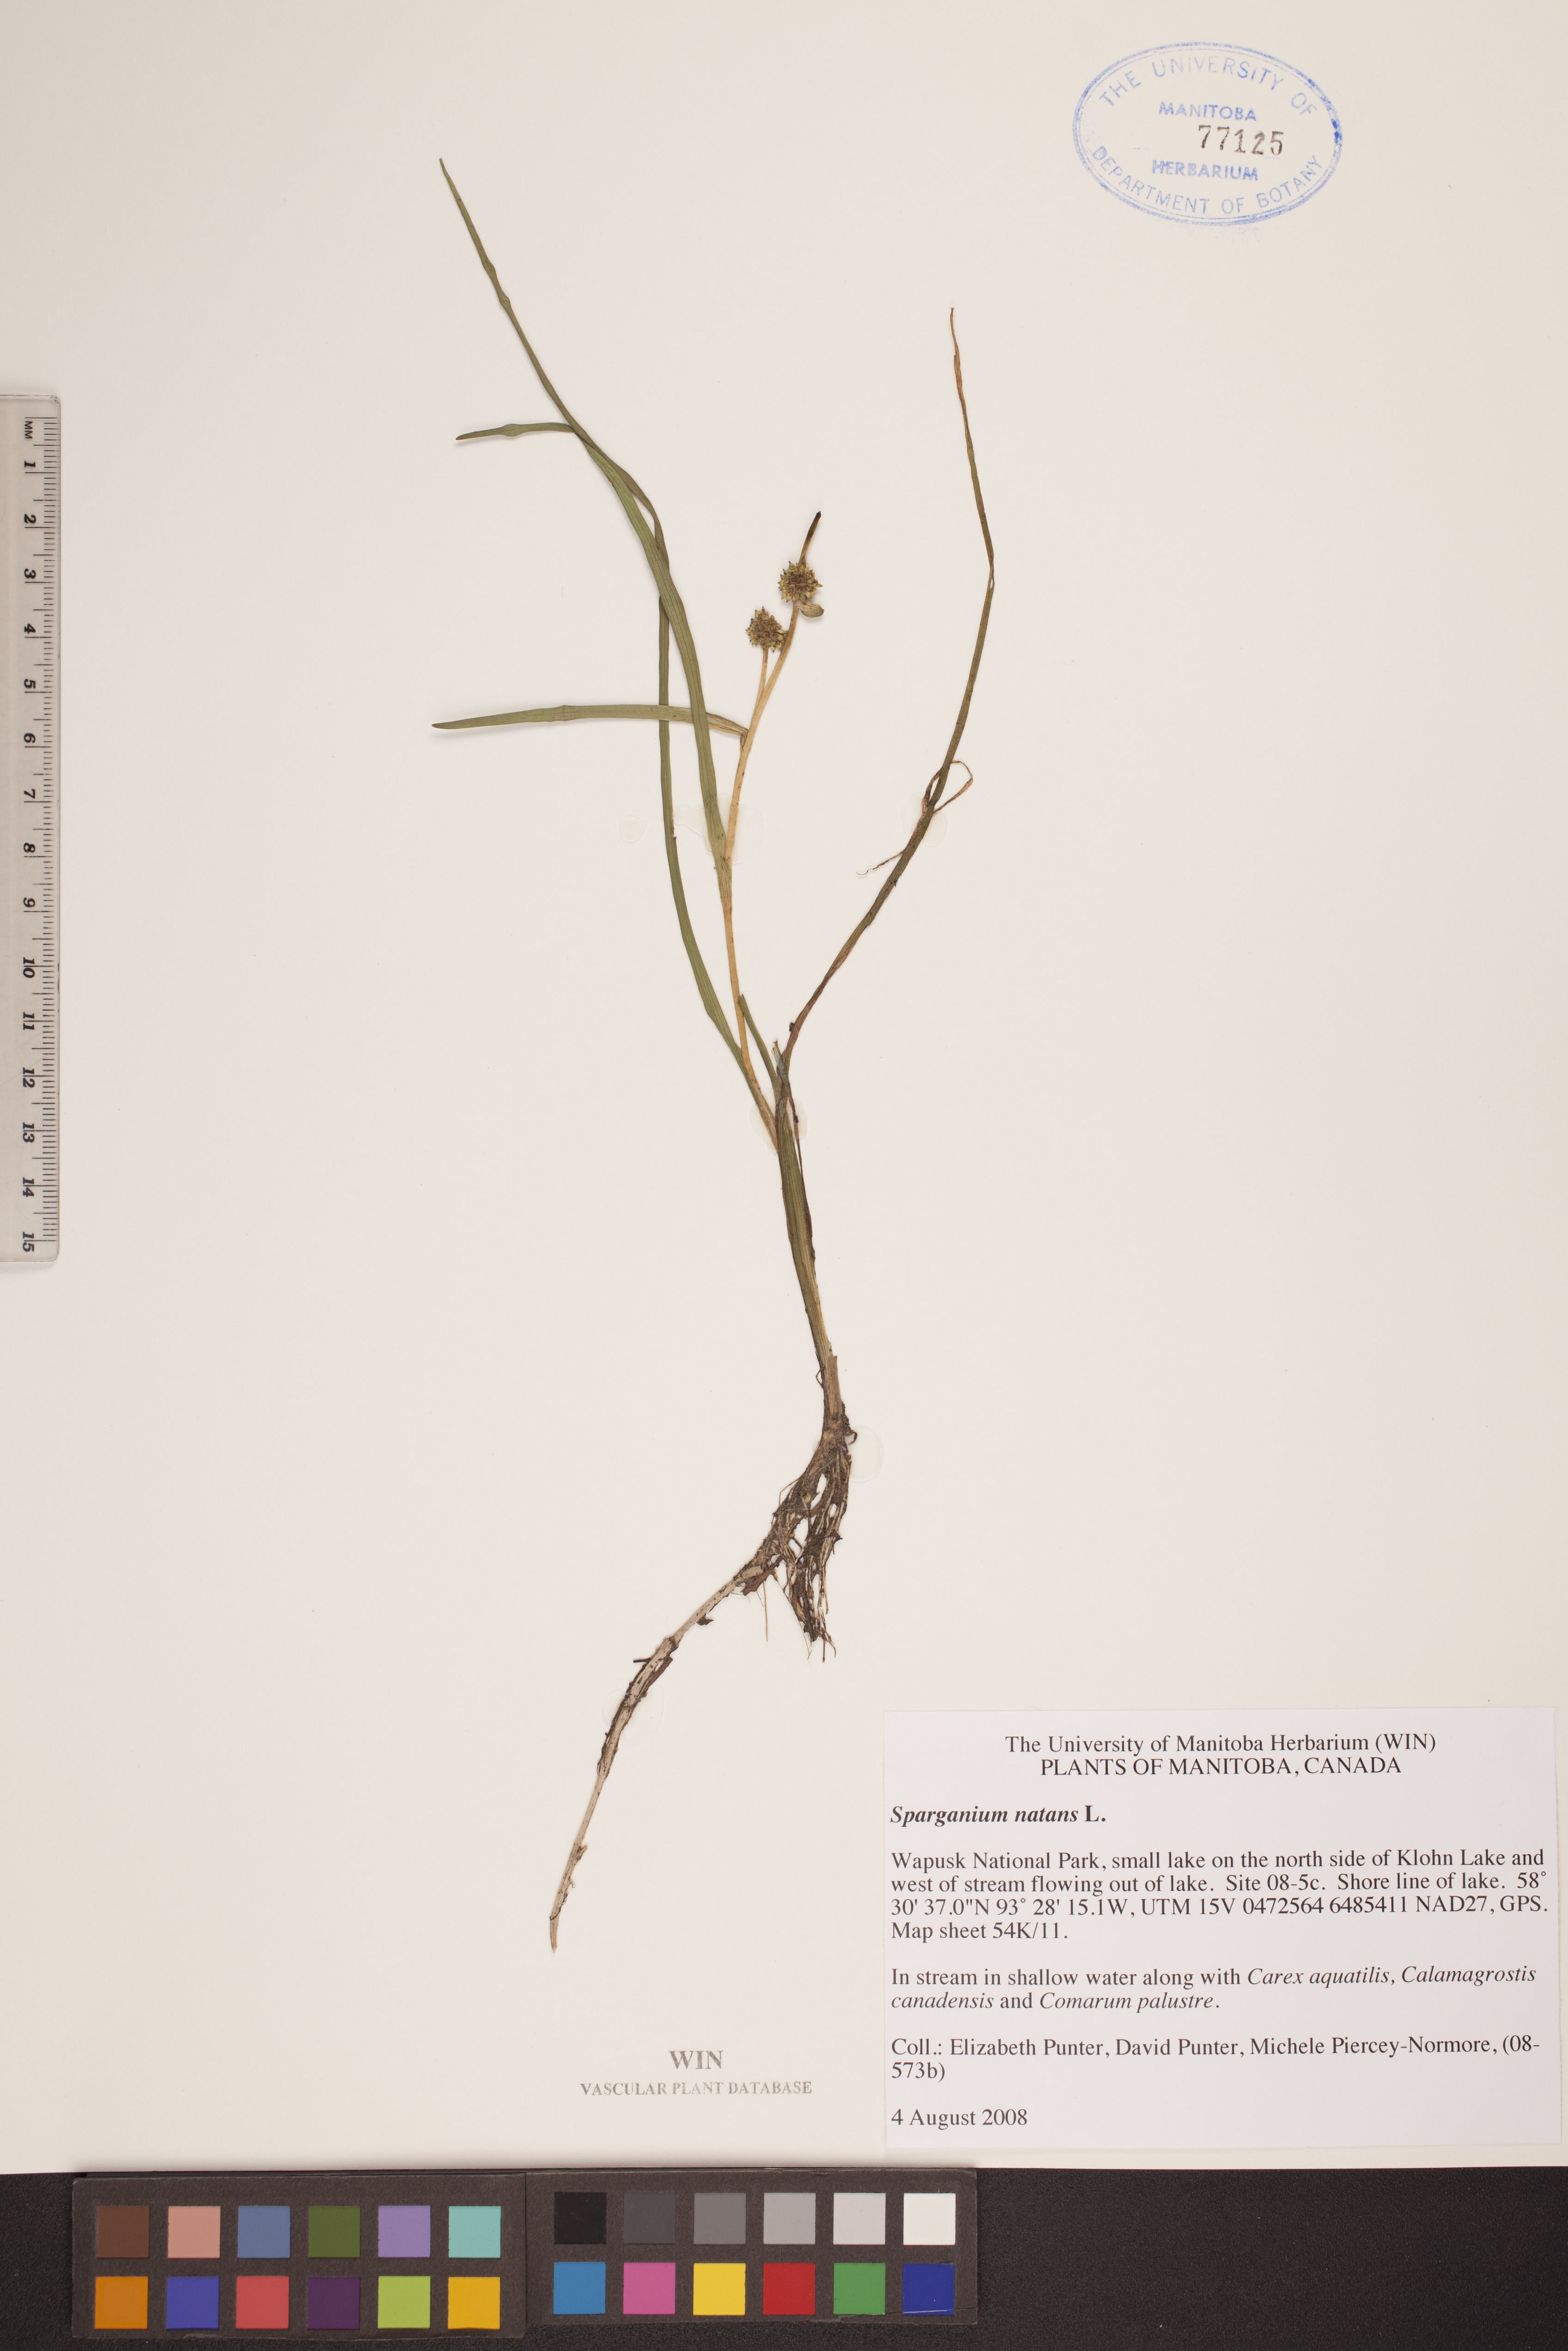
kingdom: Plantae
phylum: Tracheophyta
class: Liliopsida
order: Poales
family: Typhaceae
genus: Sparganium
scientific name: Sparganium natans
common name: Least bur-reed
